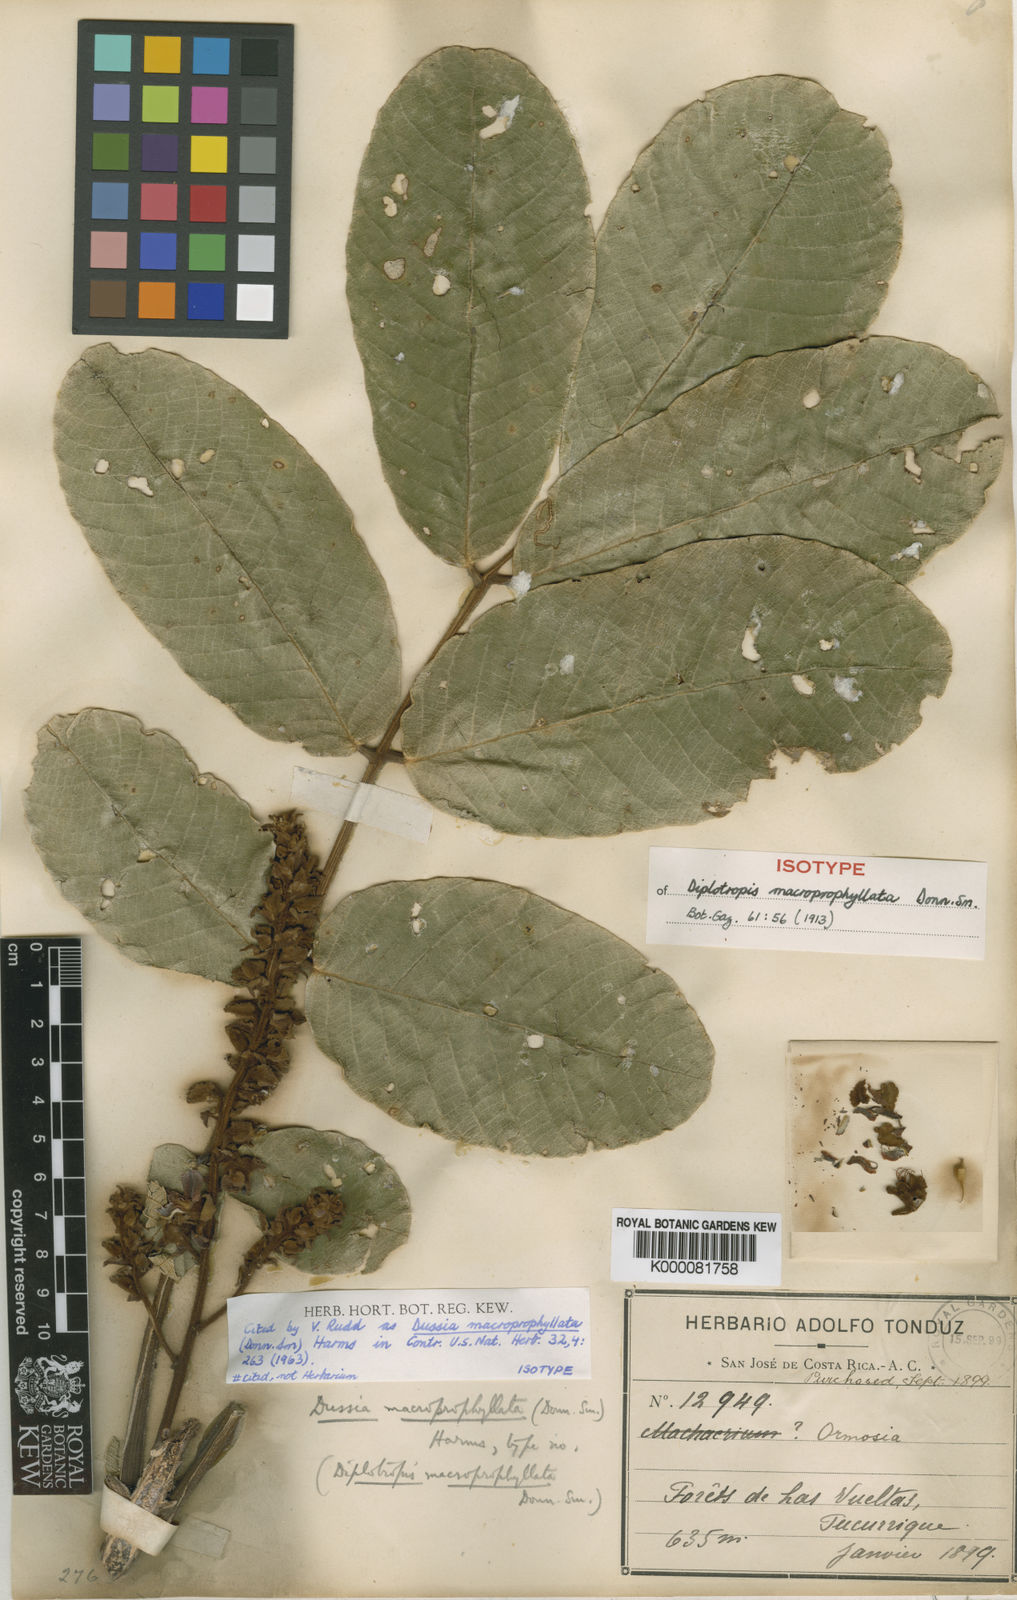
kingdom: Plantae
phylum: Tracheophyta
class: Magnoliopsida
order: Fabales
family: Fabaceae
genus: Dussia
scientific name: Dussia macroprophyllata
